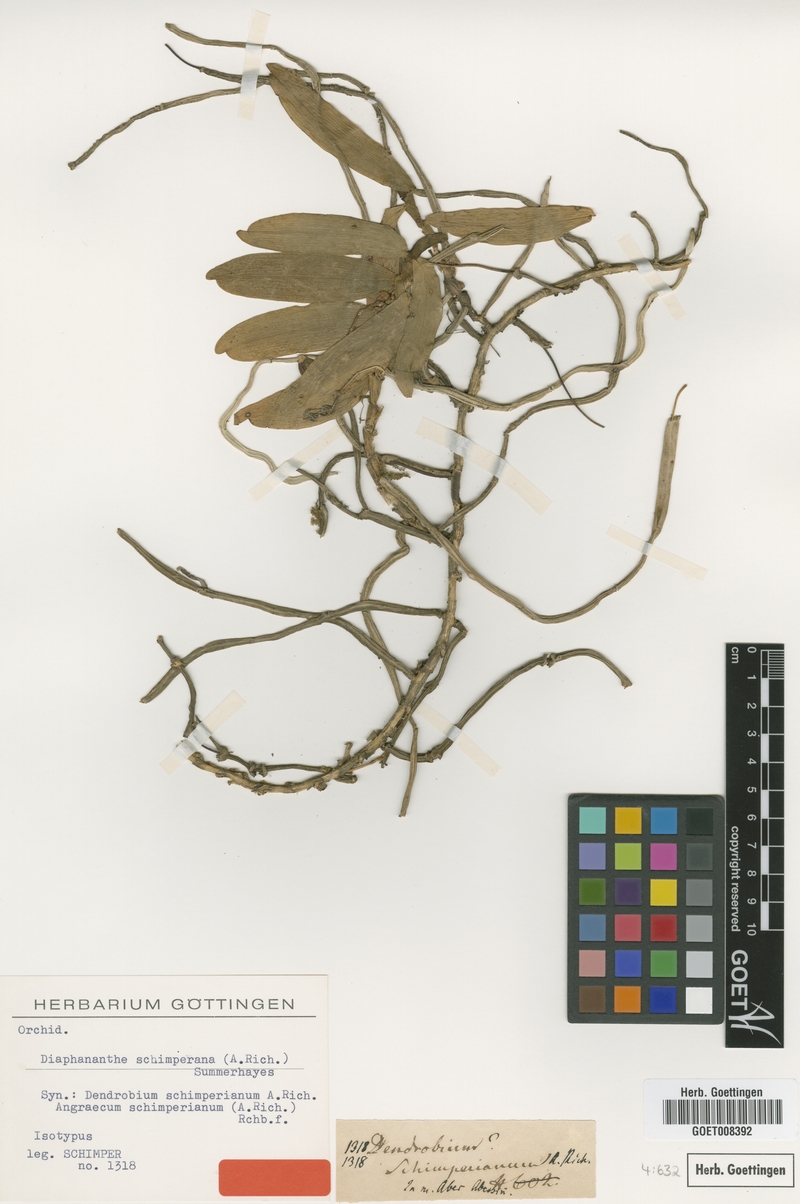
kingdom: Plantae
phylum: Tracheophyta
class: Liliopsida
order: Asparagales
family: Orchidaceae
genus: Rhipidoglossum
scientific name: Rhipidoglossum schimperianum
